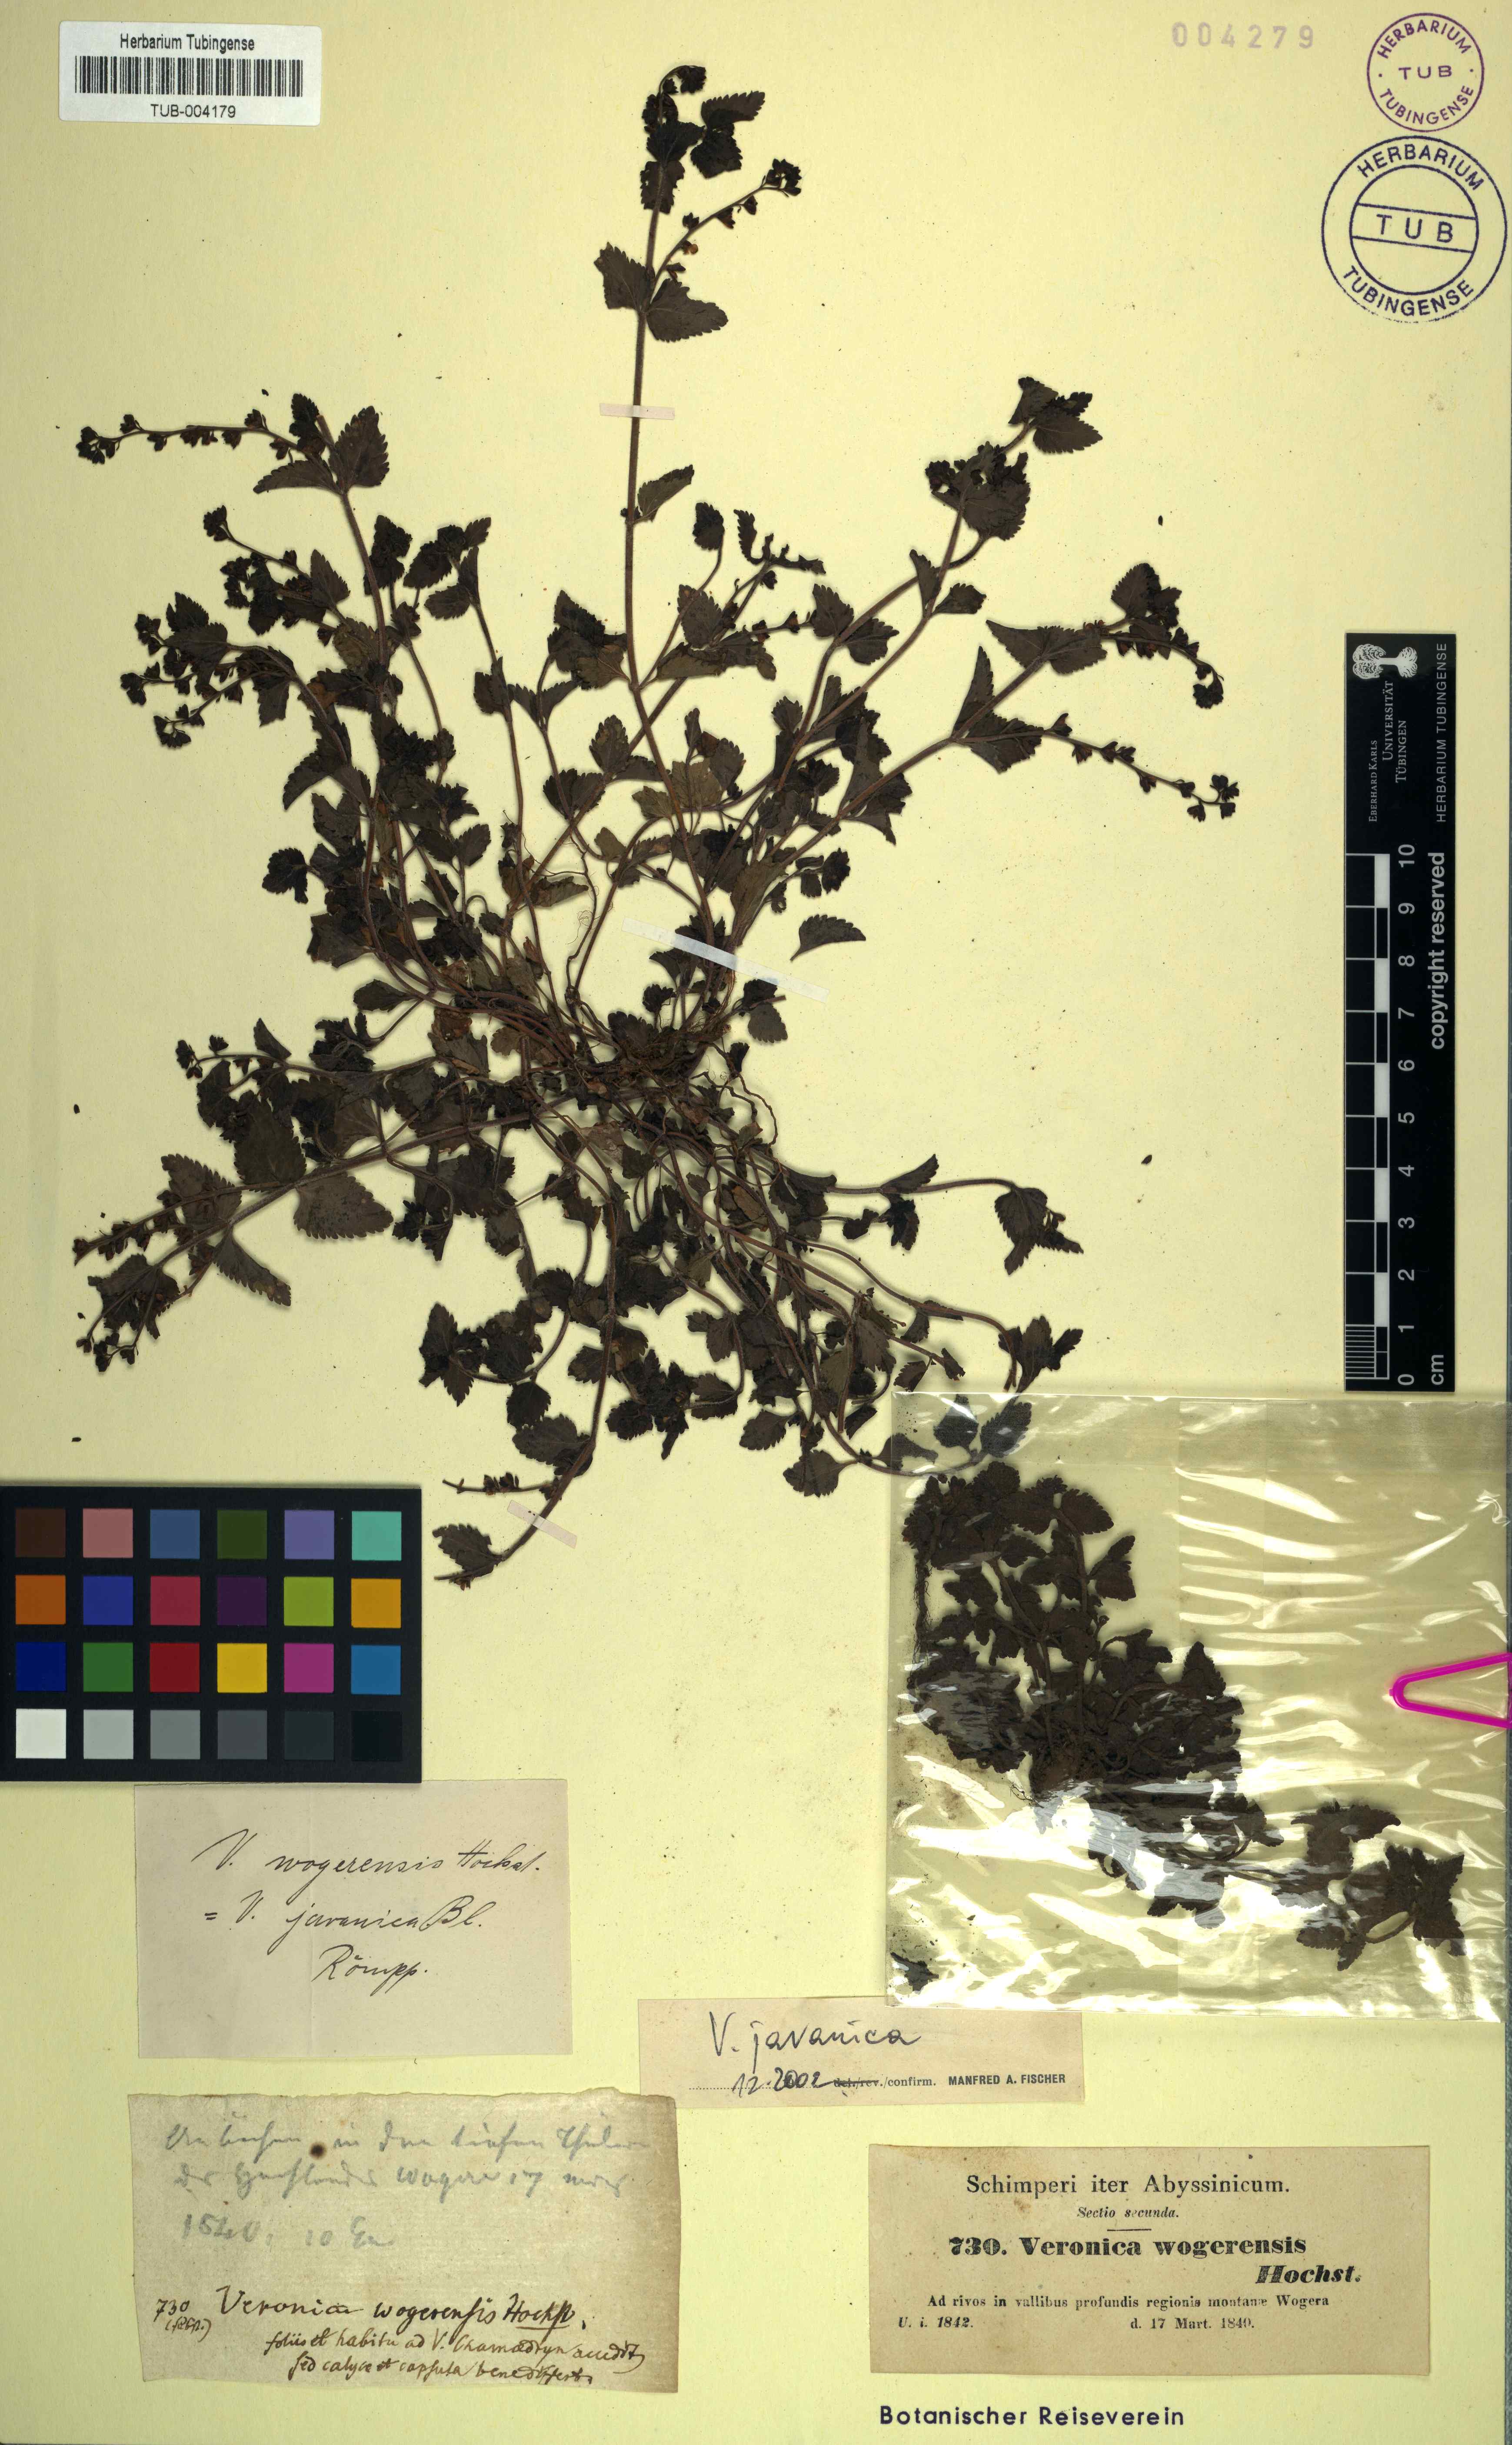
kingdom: Plantae
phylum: Tracheophyta
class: Magnoliopsida
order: Lamiales
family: Plantaginaceae
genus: Veronica
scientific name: Veronica javanica
